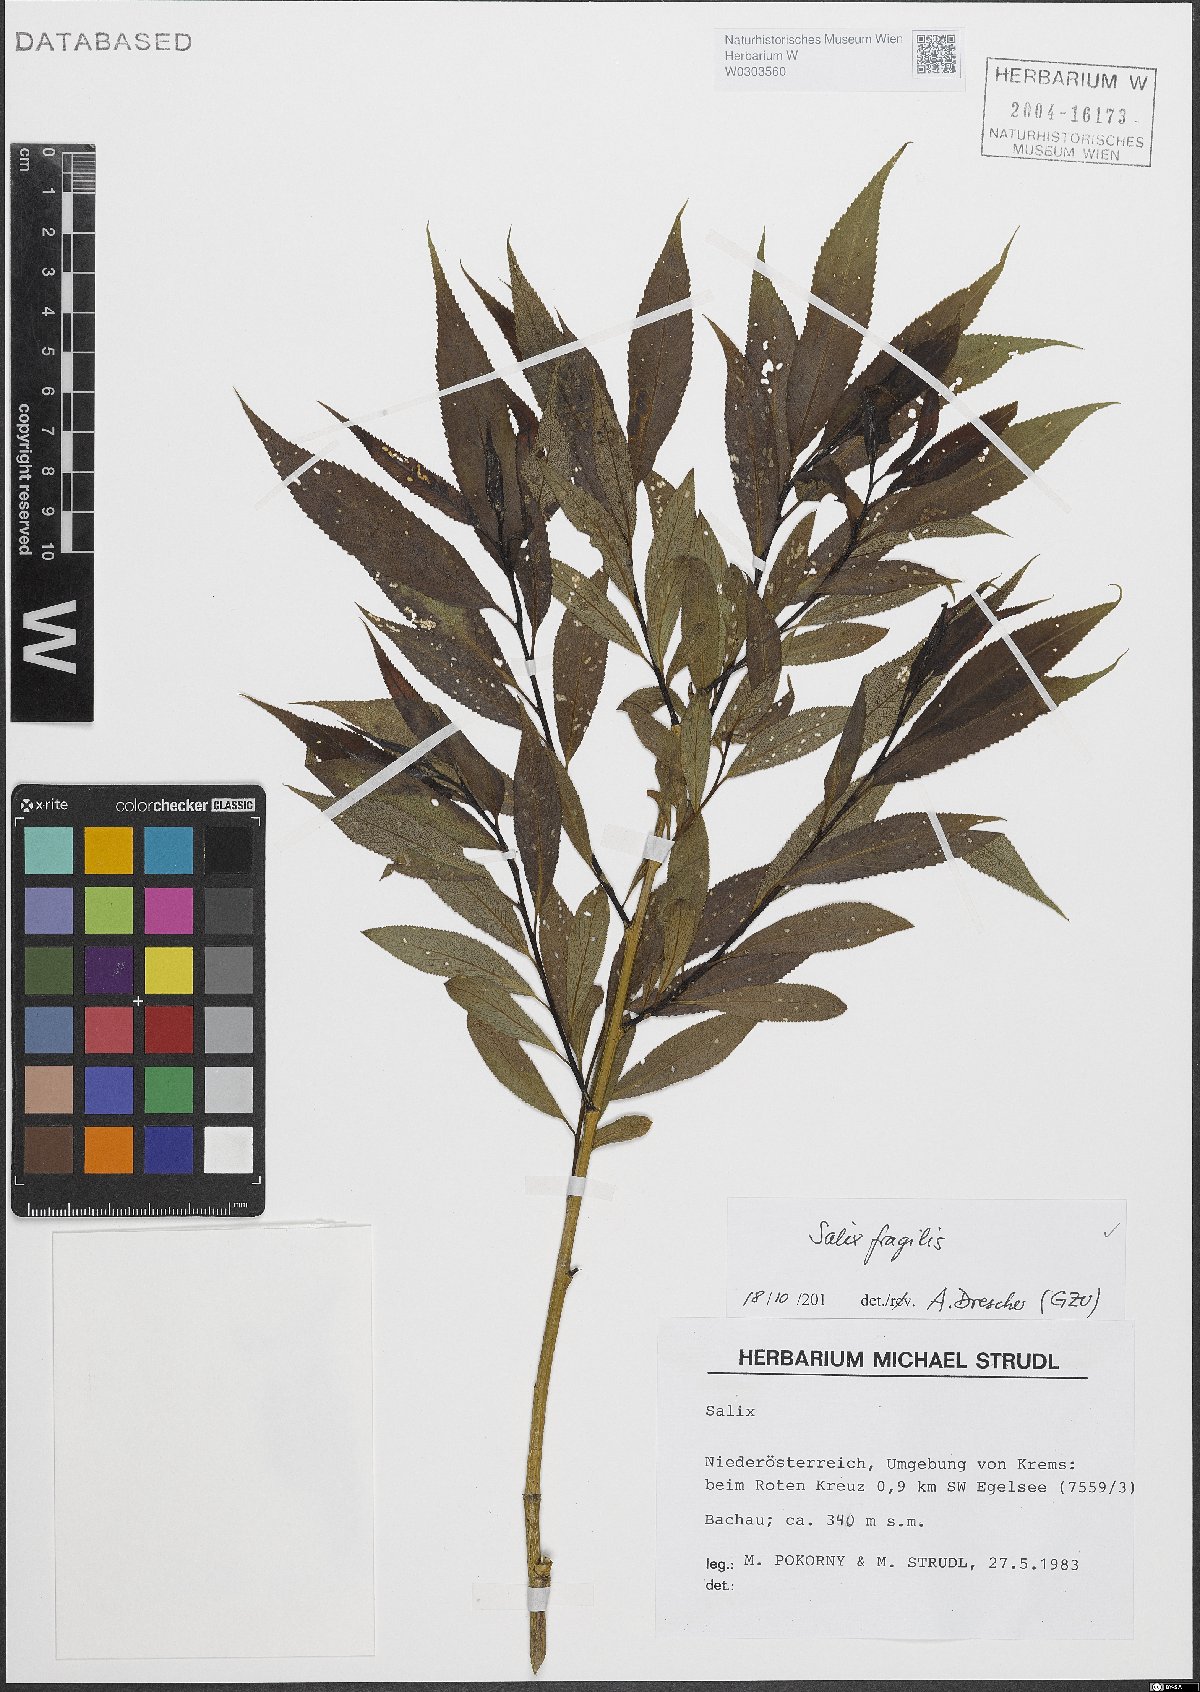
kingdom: Plantae
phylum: Tracheophyta
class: Magnoliopsida
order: Malpighiales
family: Salicaceae
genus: Salix
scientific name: Salix fragilis
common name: Crack willow
